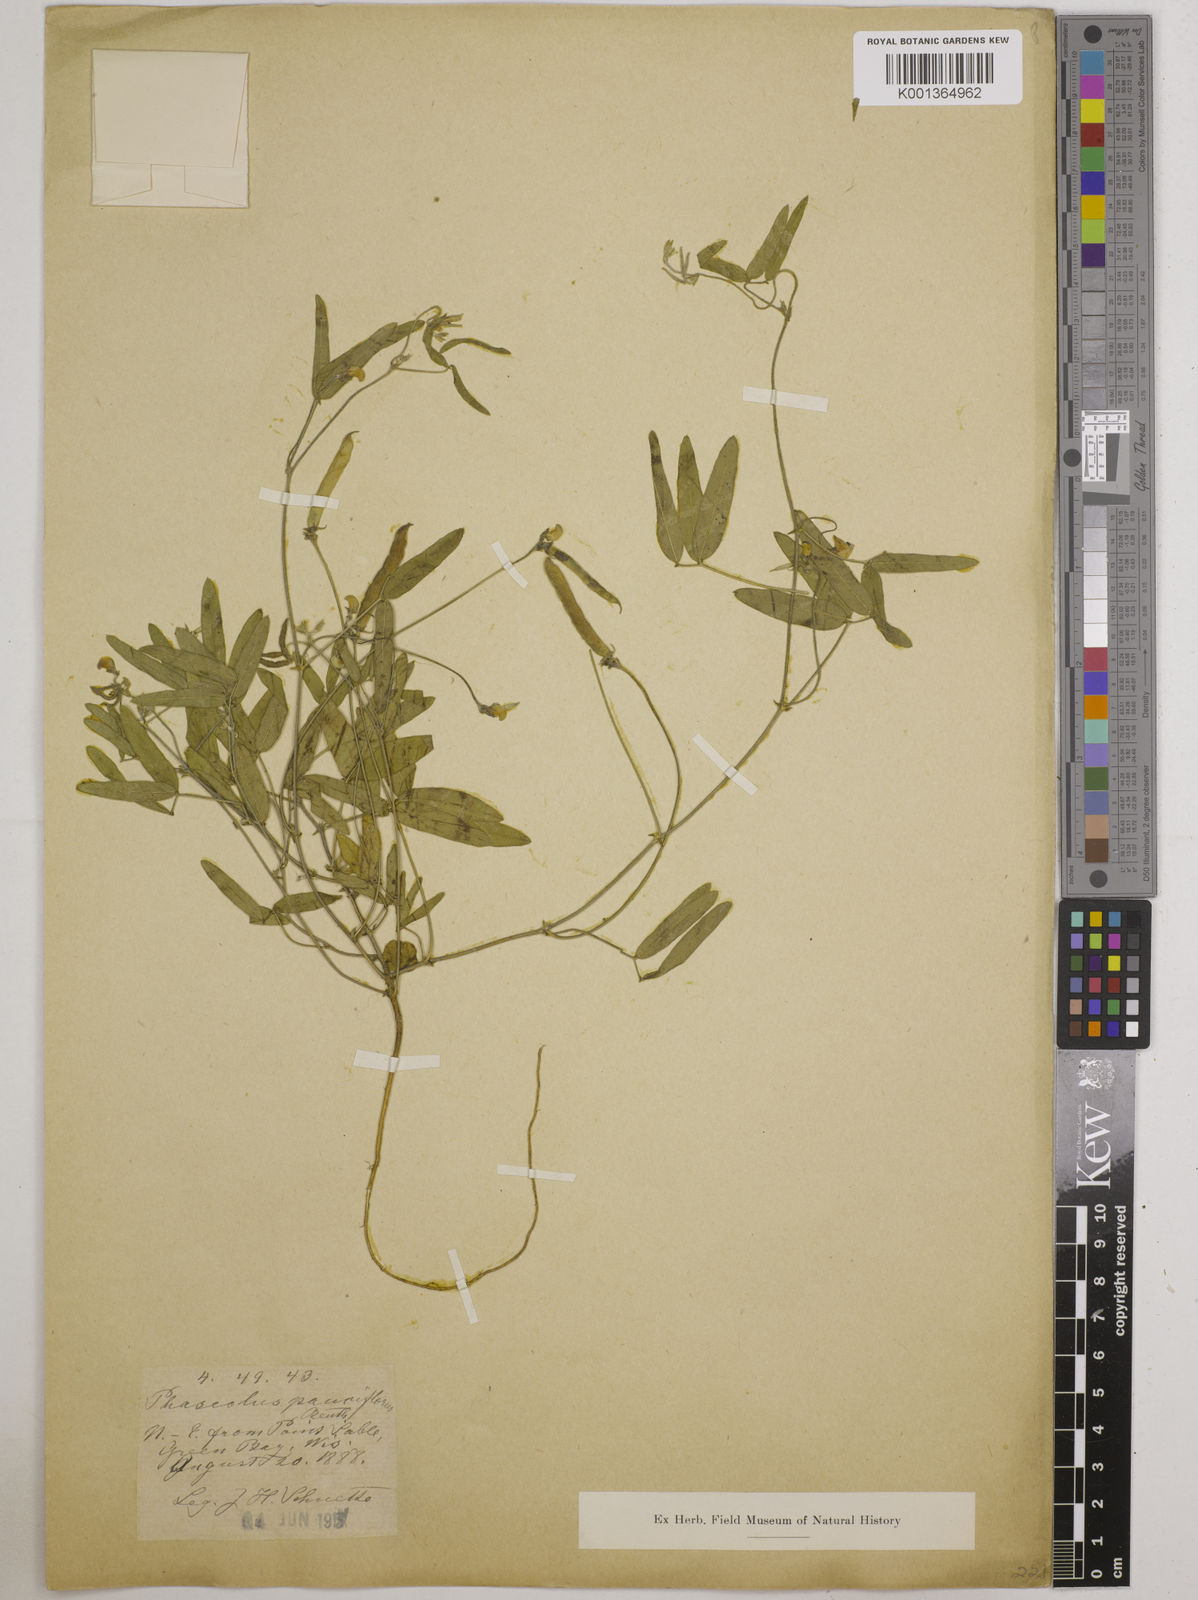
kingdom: Plantae
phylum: Tracheophyta
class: Magnoliopsida
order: Fabales
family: Fabaceae
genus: Strophostyles
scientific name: Strophostyles leiosperma
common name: Smooth-seed wild bean
